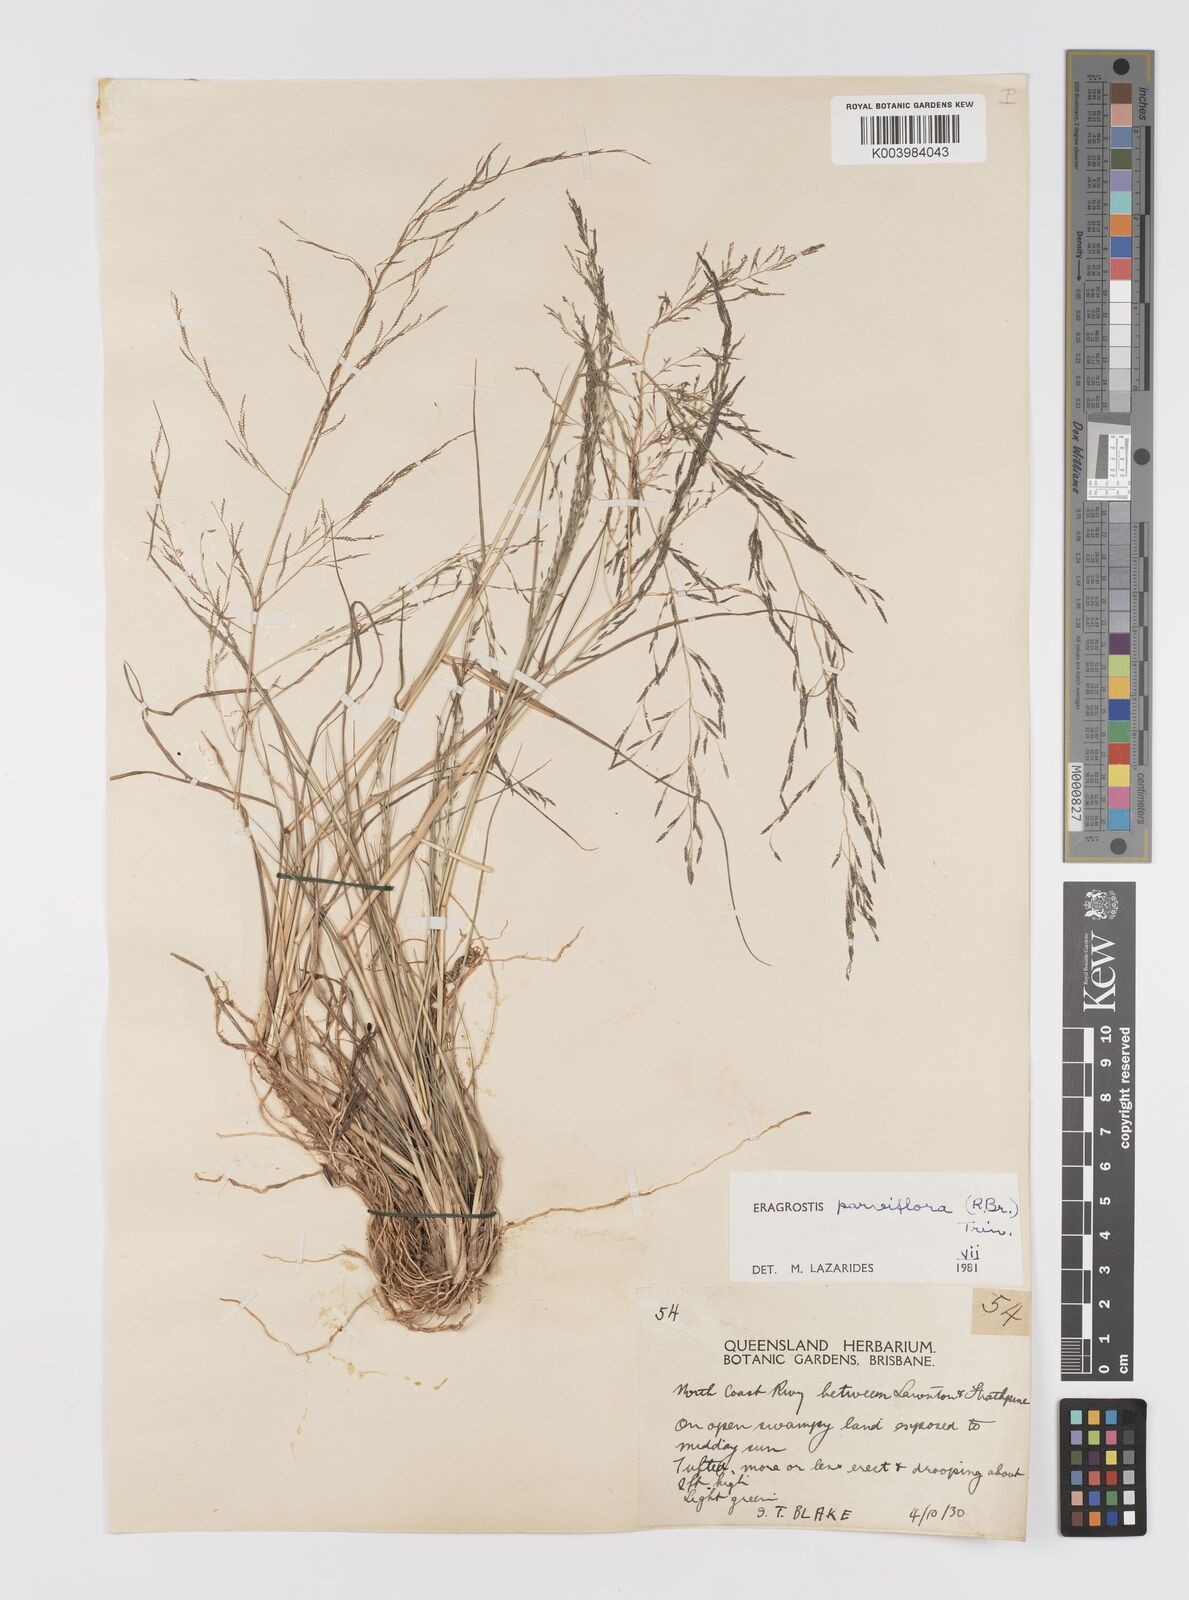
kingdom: Plantae
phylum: Tracheophyta
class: Liliopsida
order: Poales
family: Poaceae
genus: Eragrostis
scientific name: Eragrostis parviflora
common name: Weeping love-grass
